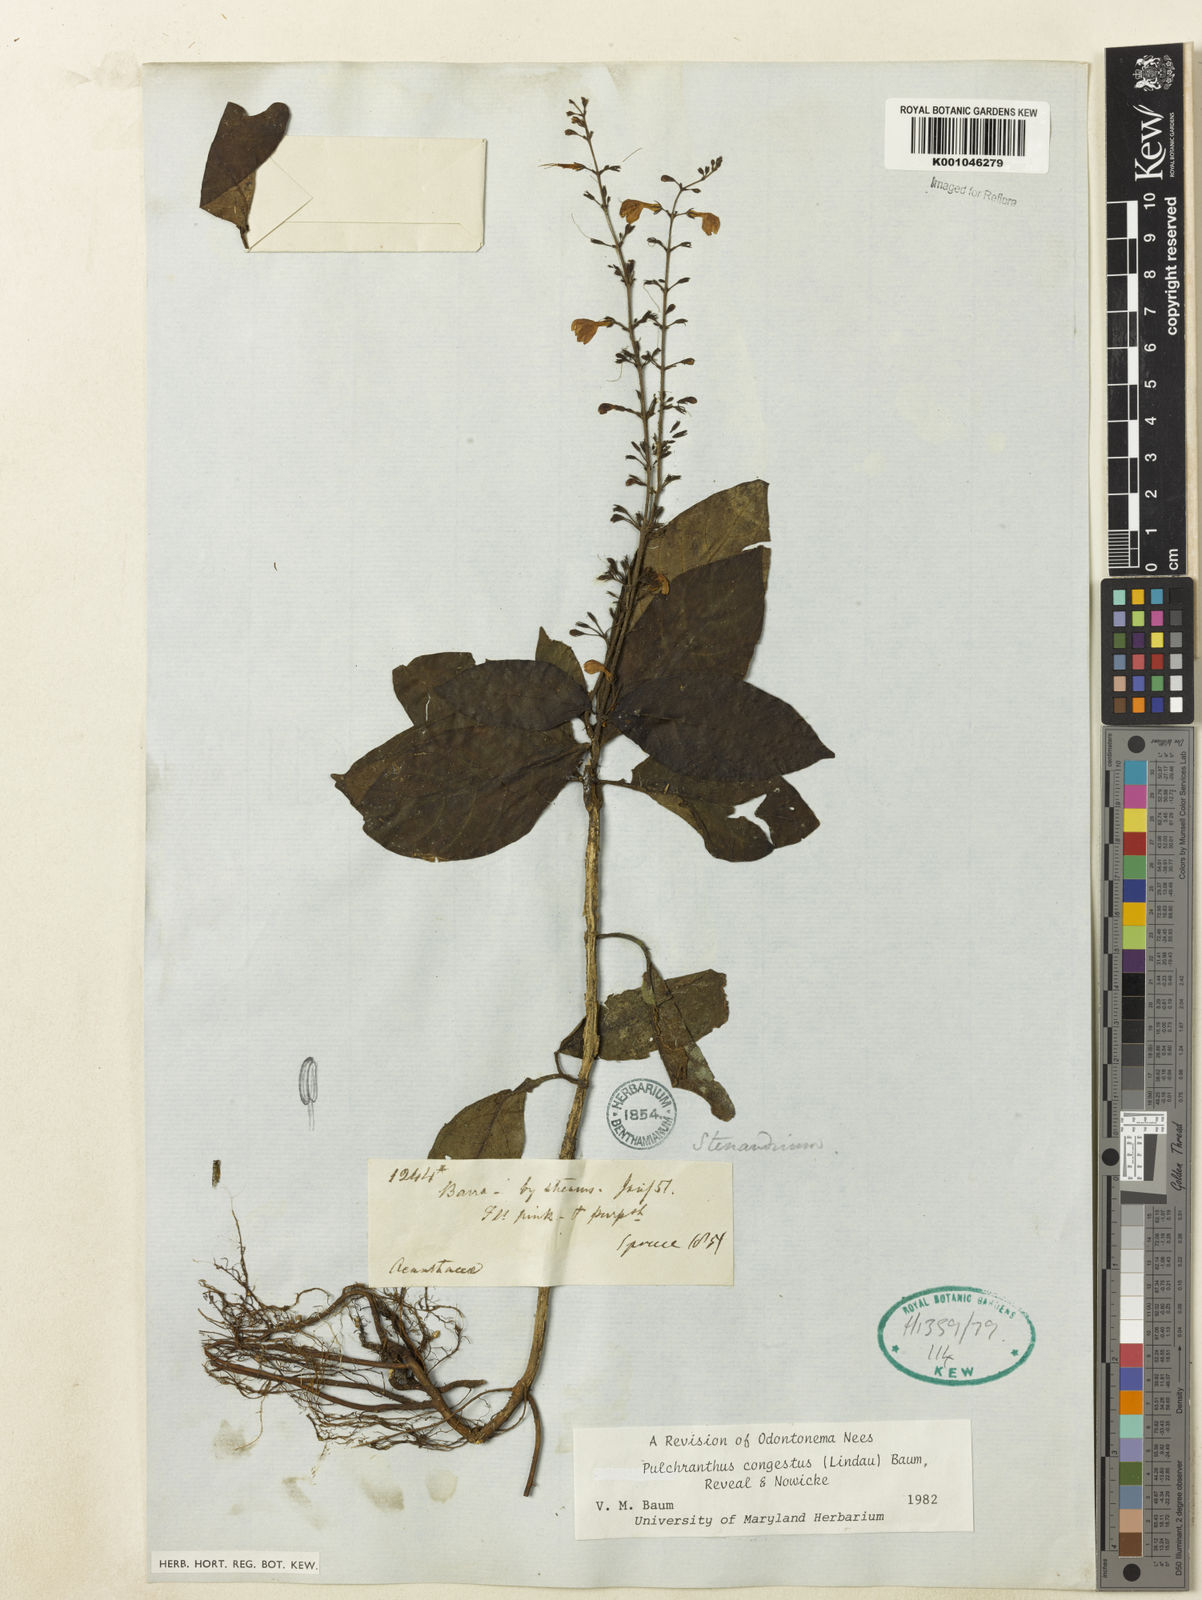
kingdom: Plantae
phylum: Tracheophyta
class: Magnoliopsida
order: Lamiales
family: Acanthaceae
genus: Pulchranthus
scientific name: Pulchranthus
